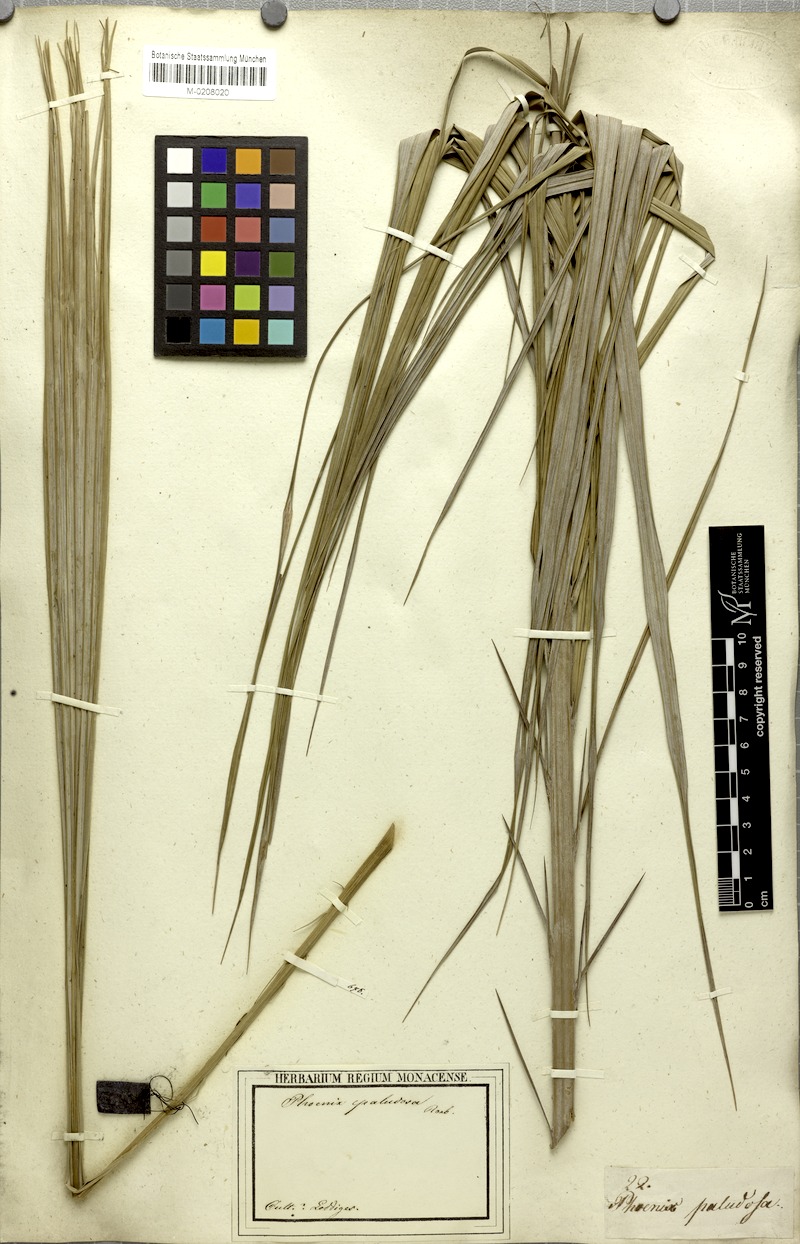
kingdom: Plantae
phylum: Tracheophyta
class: Liliopsida
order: Arecales
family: Arecaceae
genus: Phoenix
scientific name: Phoenix paludosa
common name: Mangrove date palm
